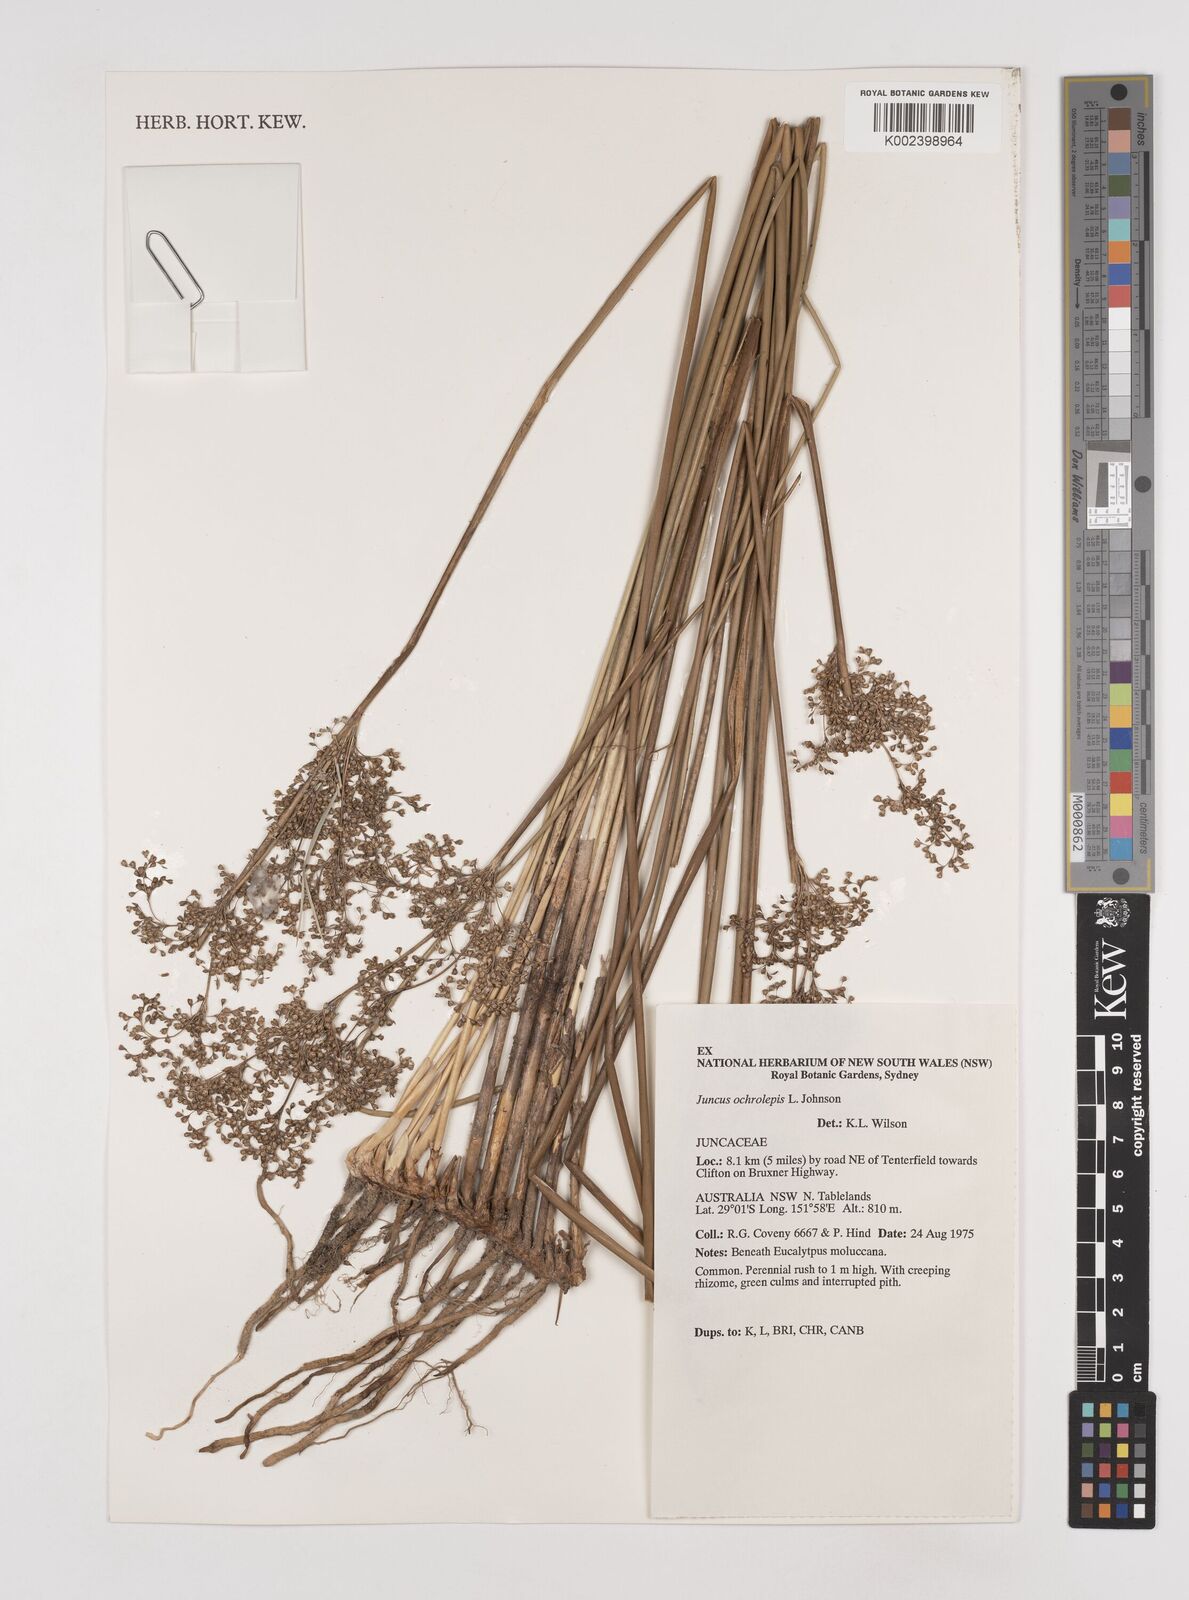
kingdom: Plantae
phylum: Tracheophyta
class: Liliopsida
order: Poales
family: Juncaceae
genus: Juncus
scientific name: Juncus ochrocoleus
